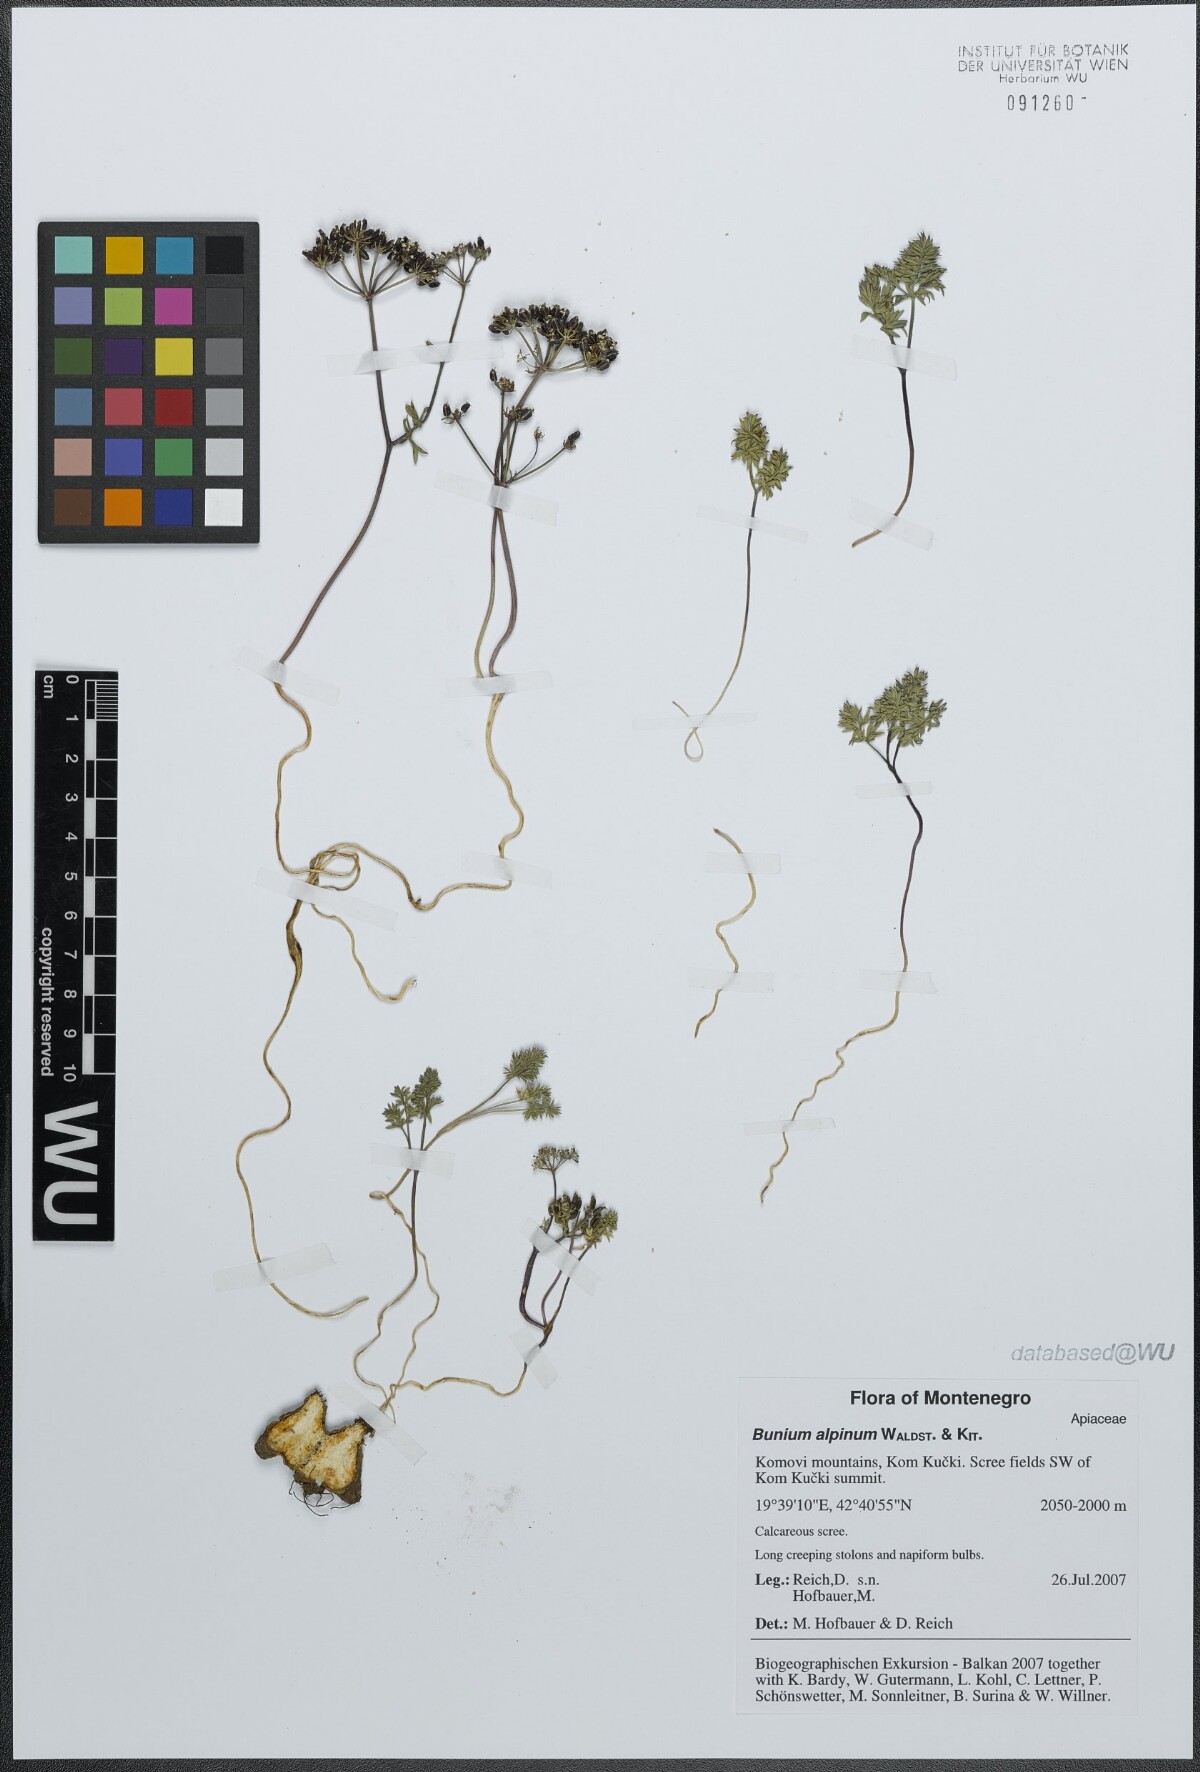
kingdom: Plantae
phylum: Tracheophyta
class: Magnoliopsida
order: Apiales
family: Apiaceae
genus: Bunium
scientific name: Bunium alpinum
